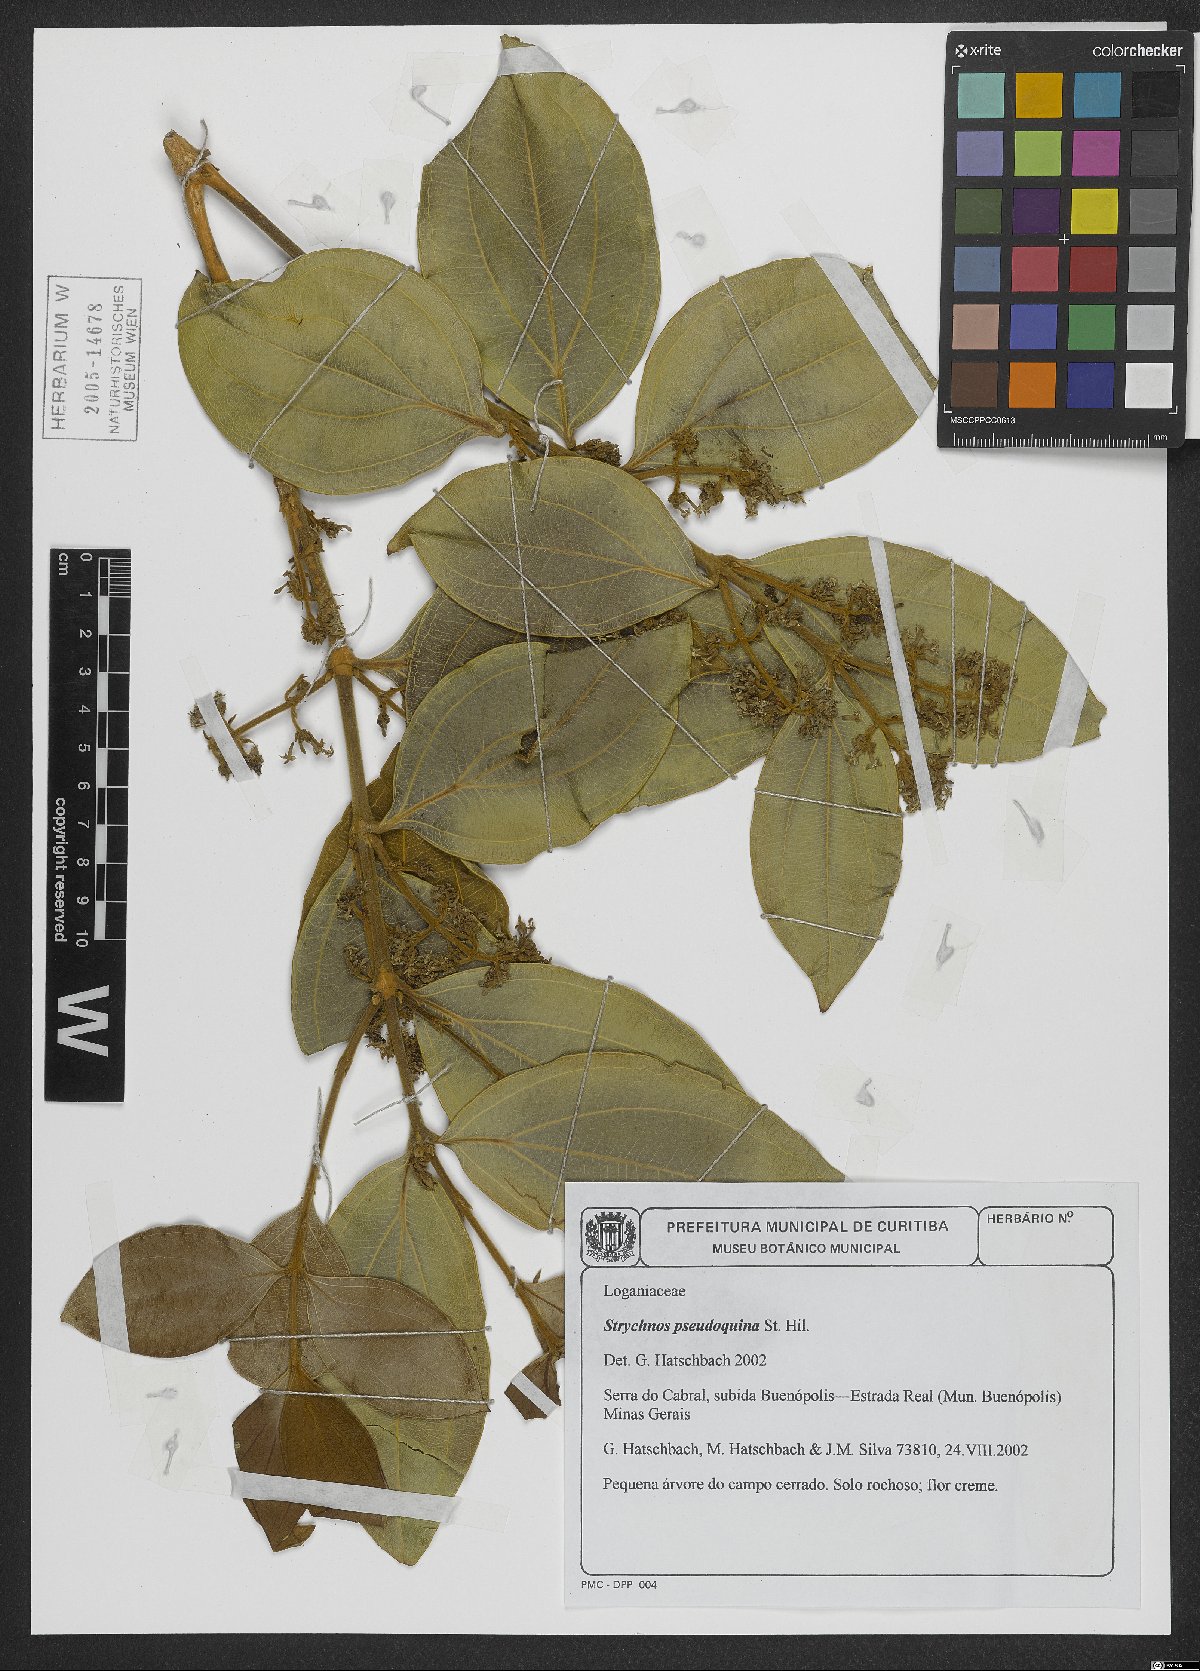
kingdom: Plantae
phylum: Tracheophyta
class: Magnoliopsida
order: Gentianales
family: Loganiaceae
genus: Strychnos
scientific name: Strychnos pseudoquina
